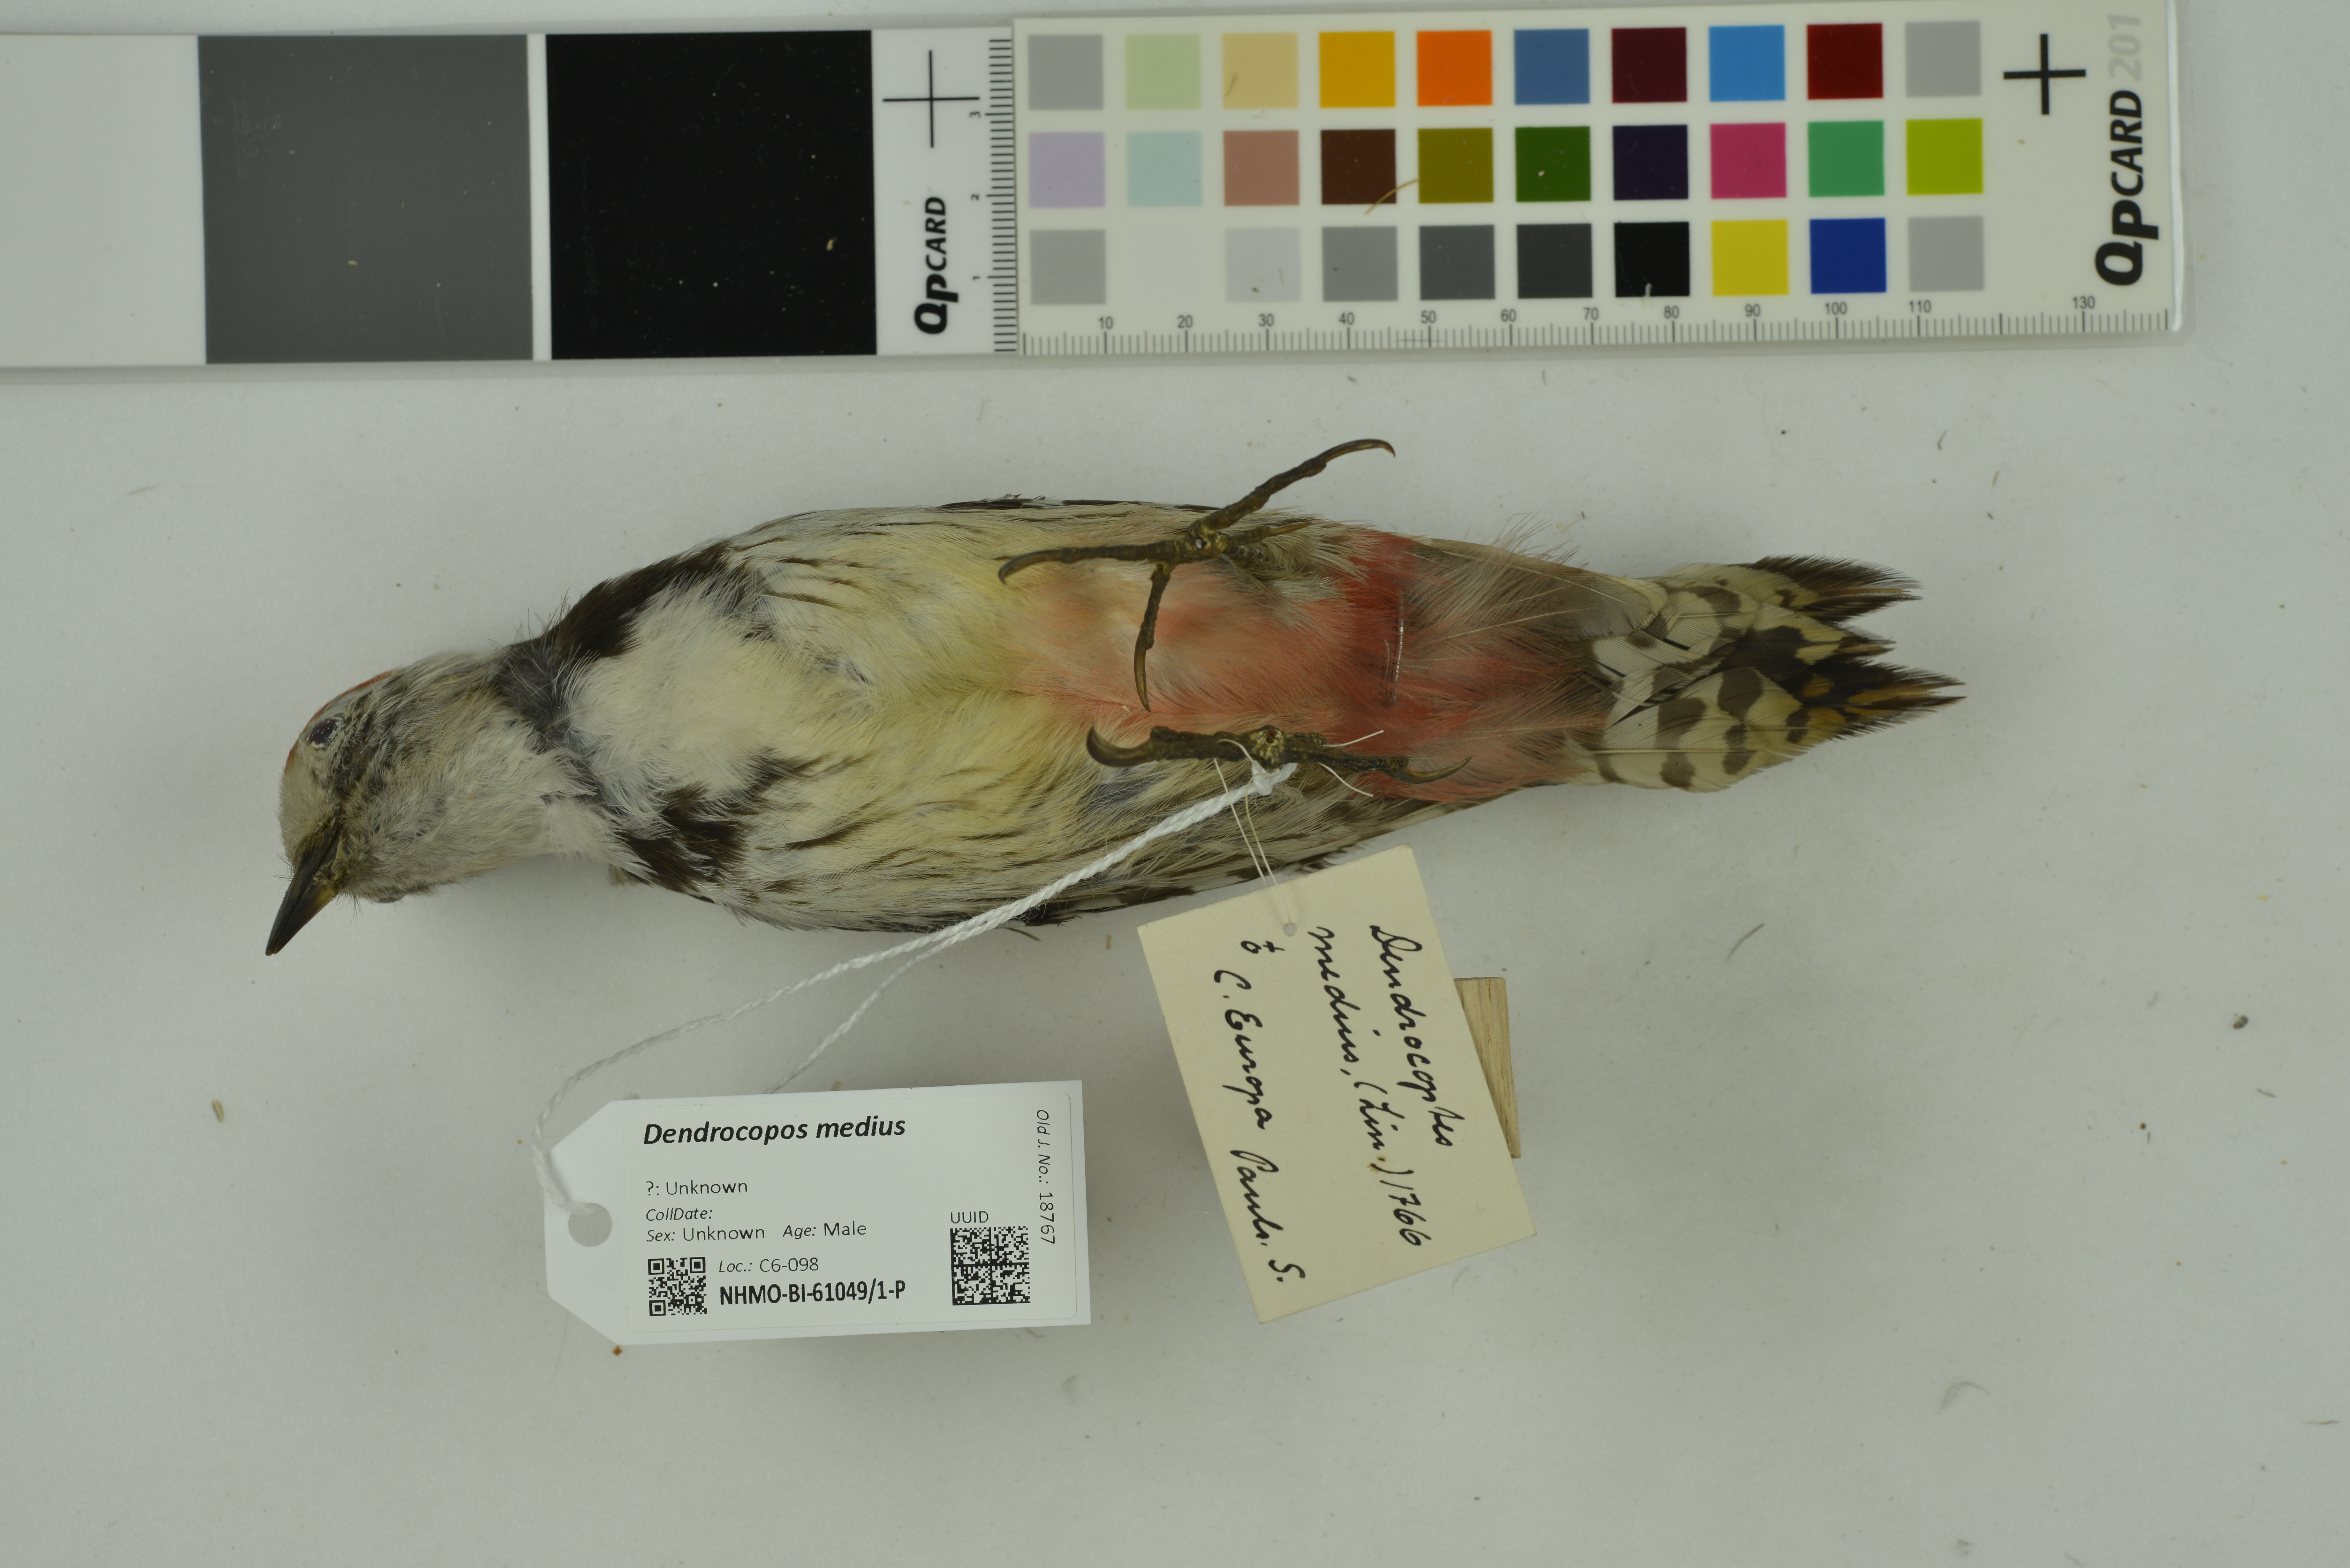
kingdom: Animalia
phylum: Chordata
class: Aves
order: Piciformes
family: Picidae
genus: Dendrocoptes
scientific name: Dendrocoptes medius
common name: Middle spotted woodpecker
